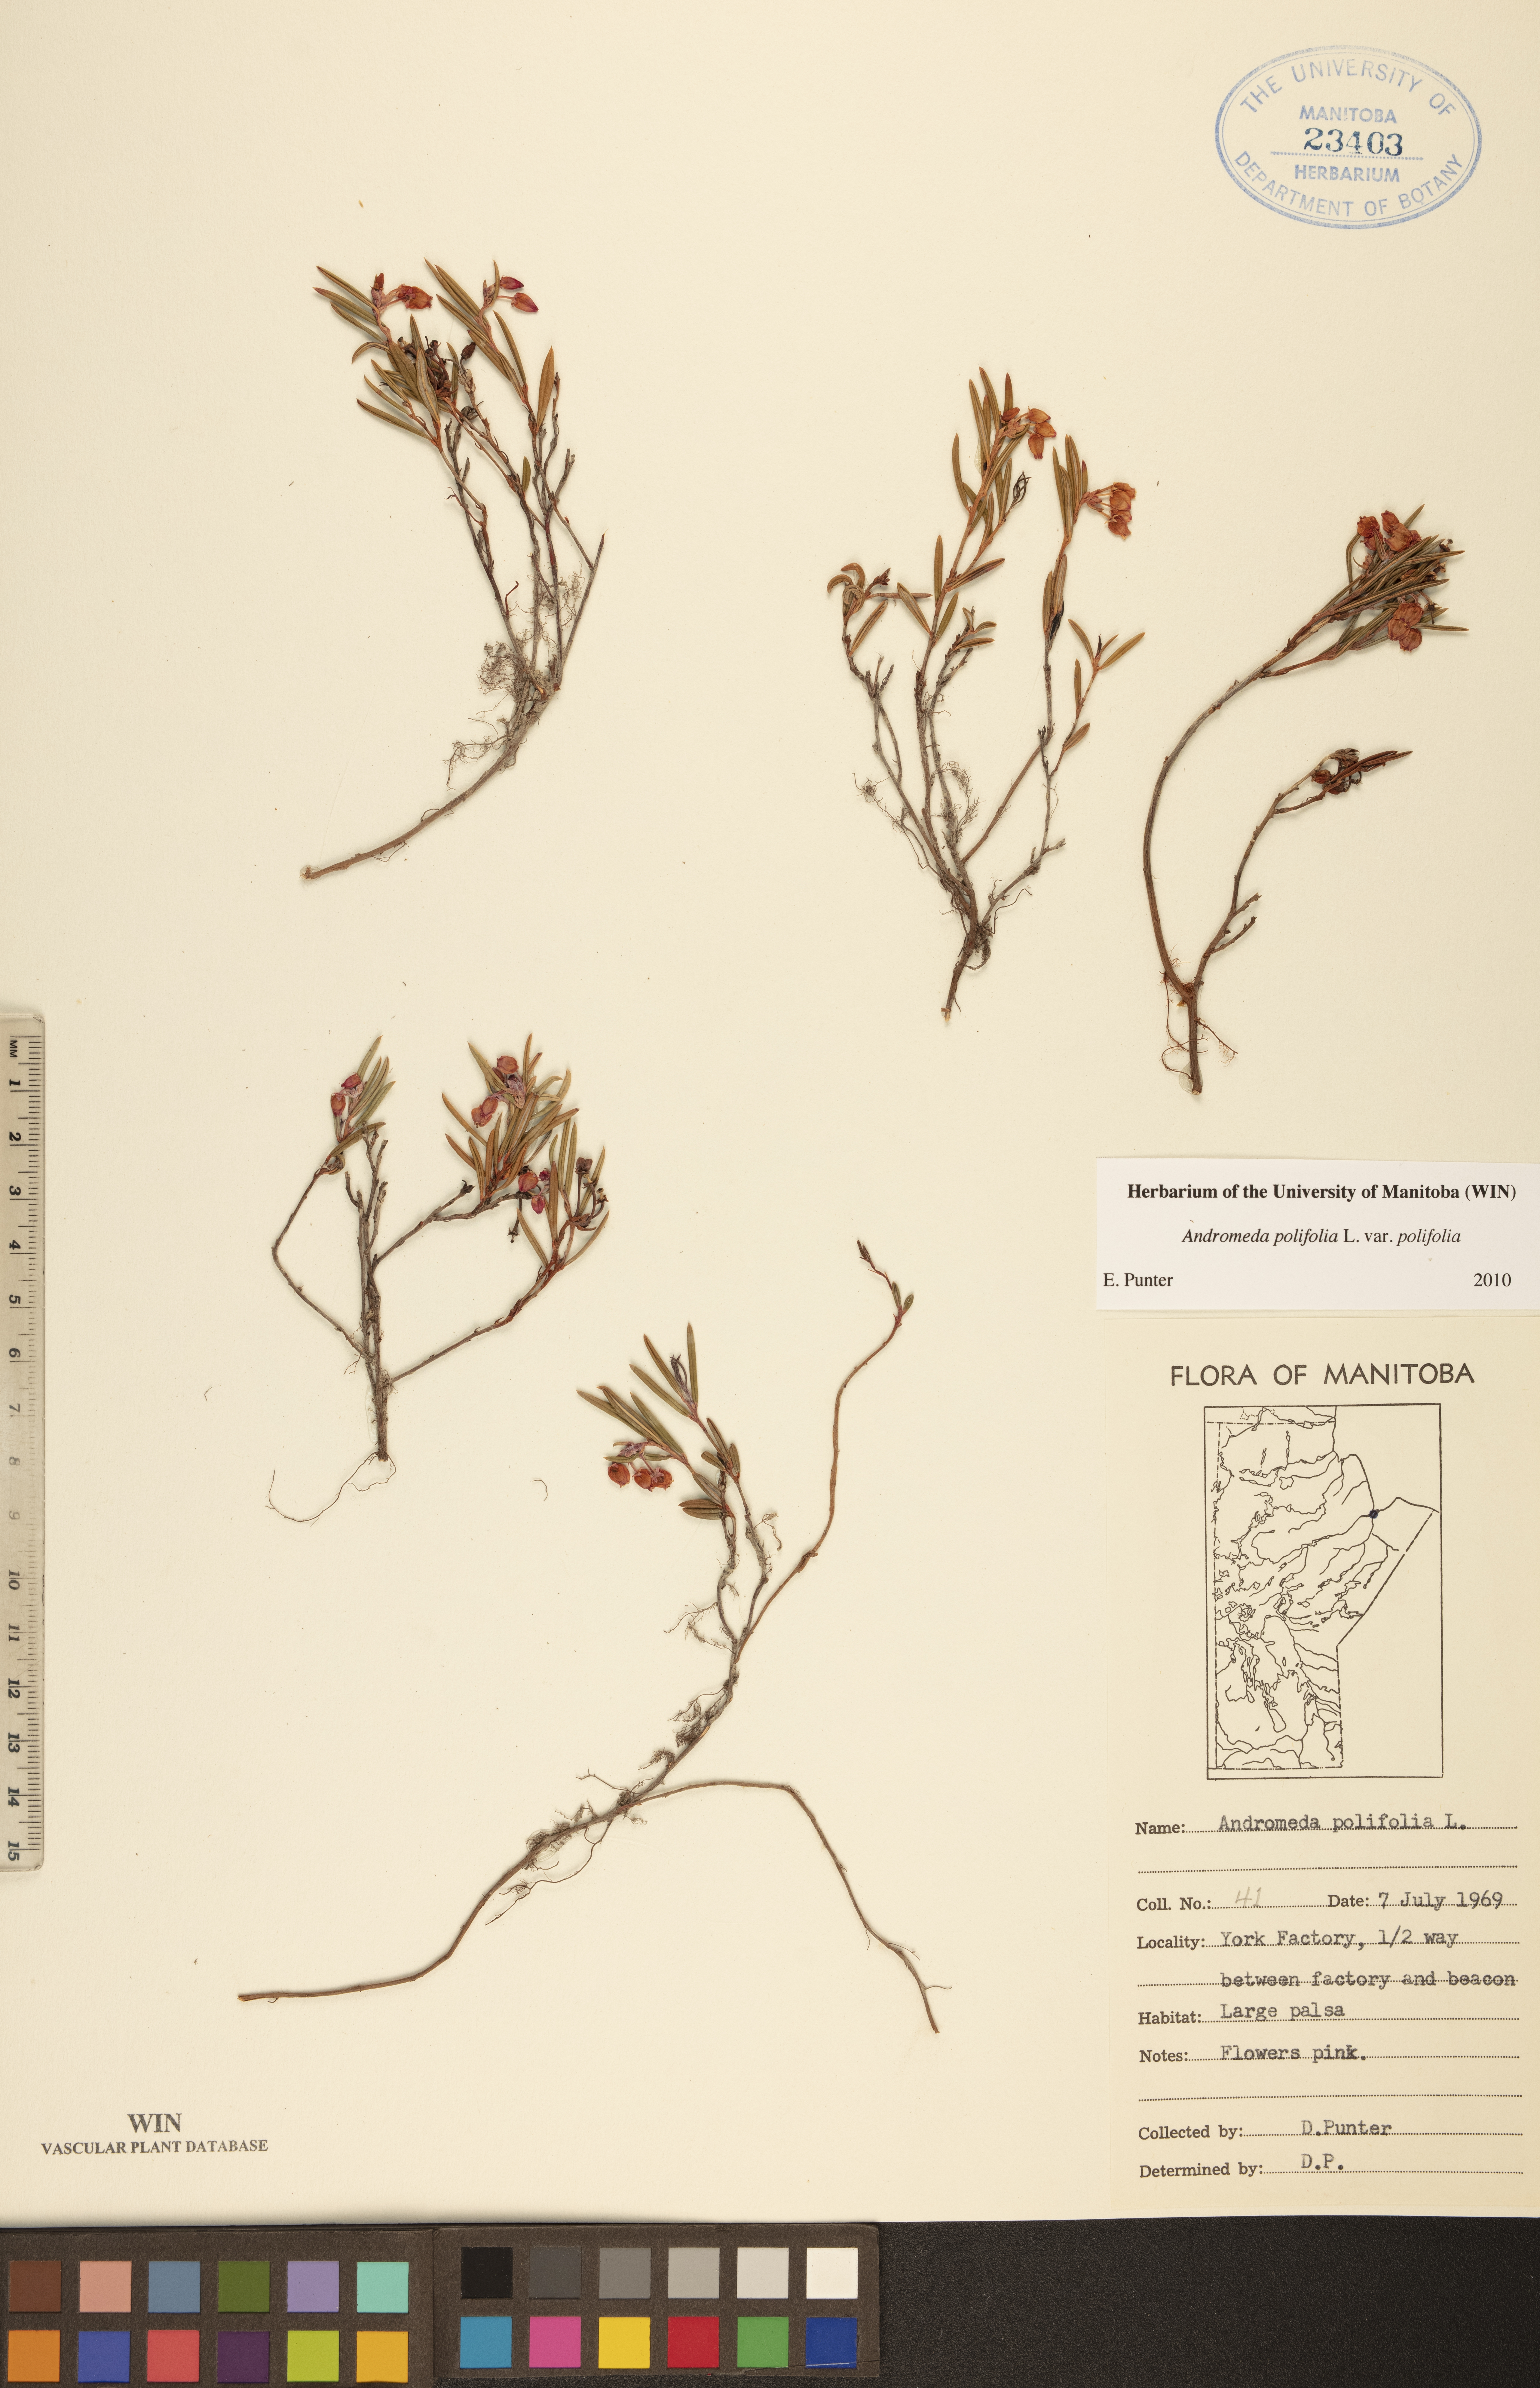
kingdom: Plantae
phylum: Tracheophyta
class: Magnoliopsida
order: Ericales
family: Ericaceae
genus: Andromeda
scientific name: Andromeda polifolia
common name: Bog-rosemary
